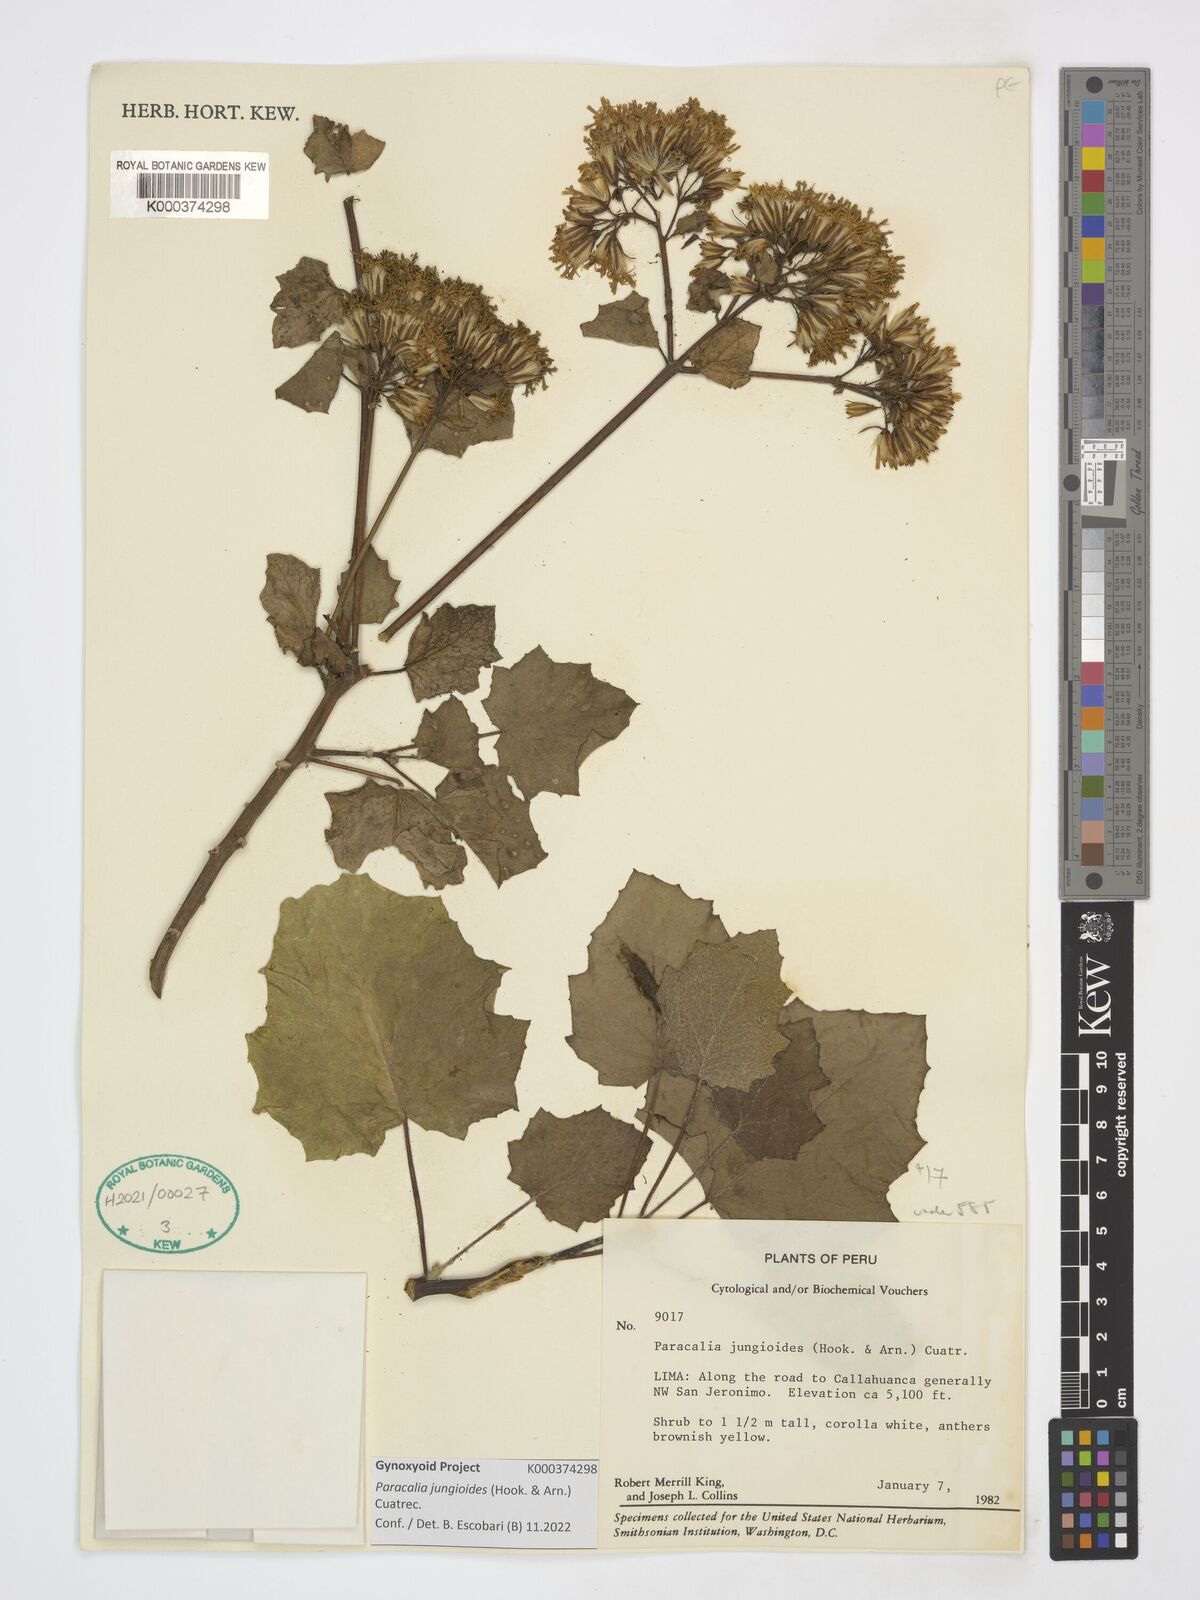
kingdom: Plantae
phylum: Tracheophyta
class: Magnoliopsida
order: Asterales
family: Asteraceae
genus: Paracalia
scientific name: Paracalia jungioides
